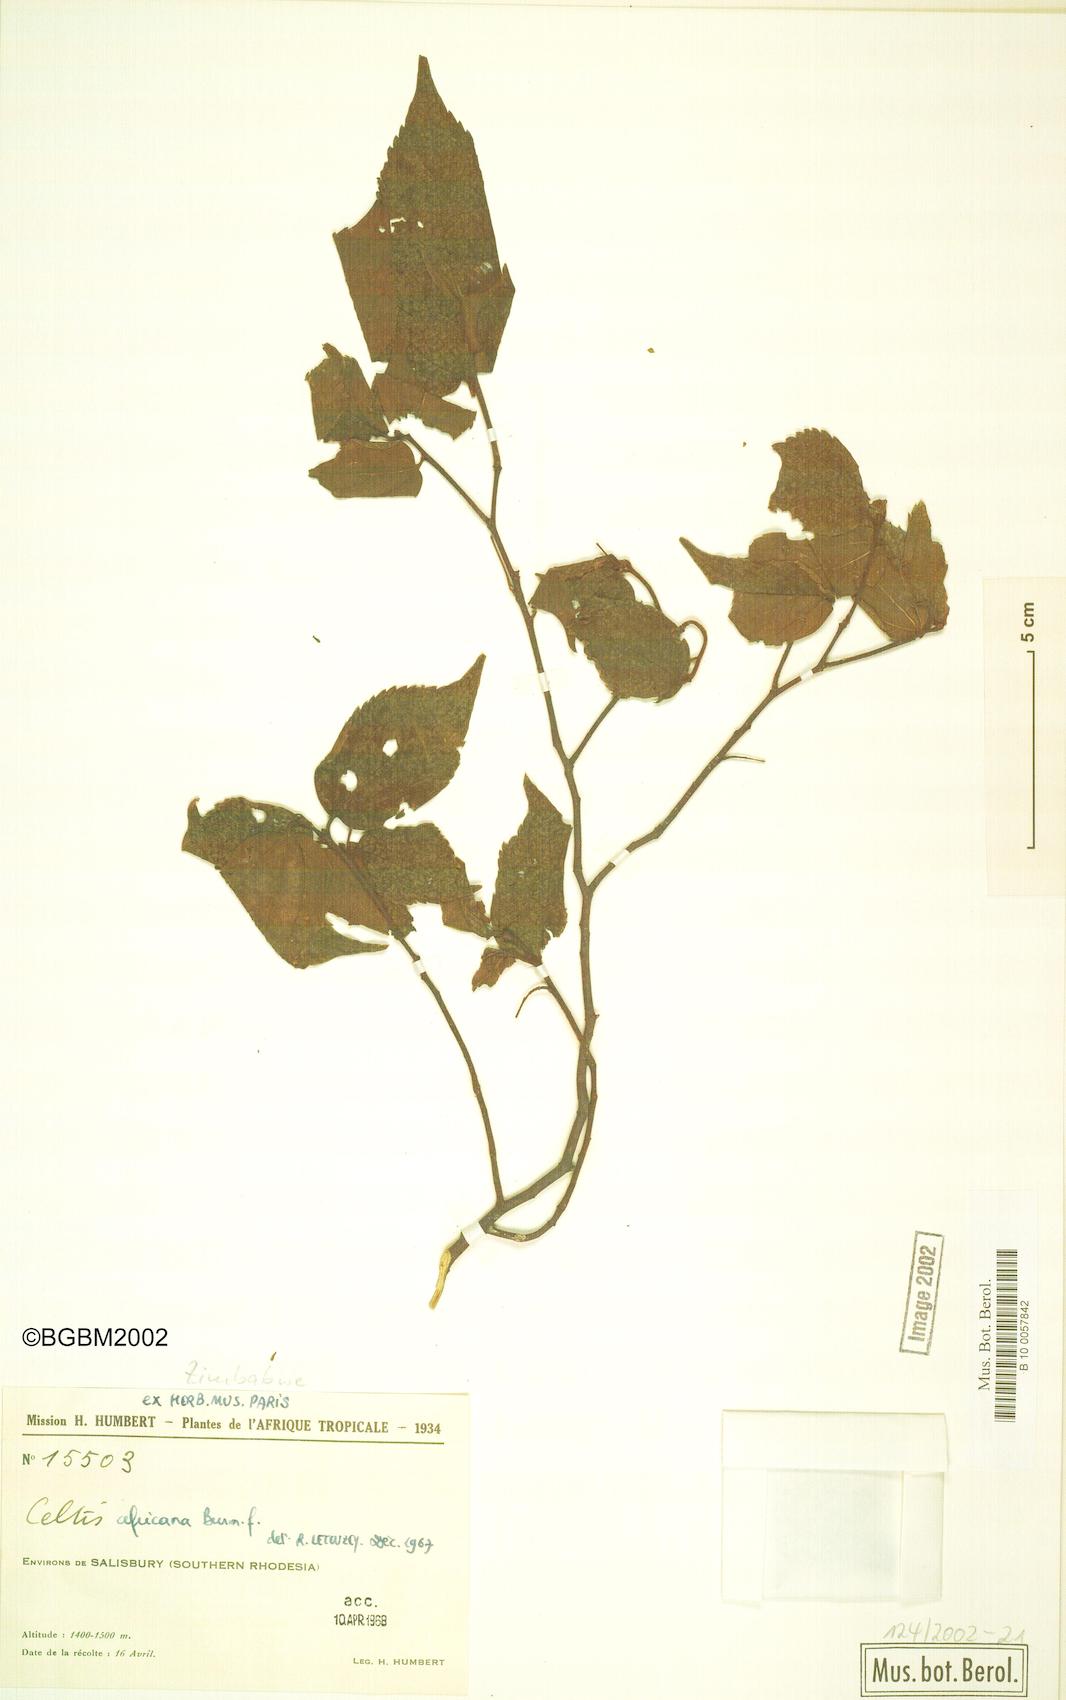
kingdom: Plantae
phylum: Tracheophyta
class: Magnoliopsida
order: Rosales
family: Cannabaceae
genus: Celtis
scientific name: Celtis africana
